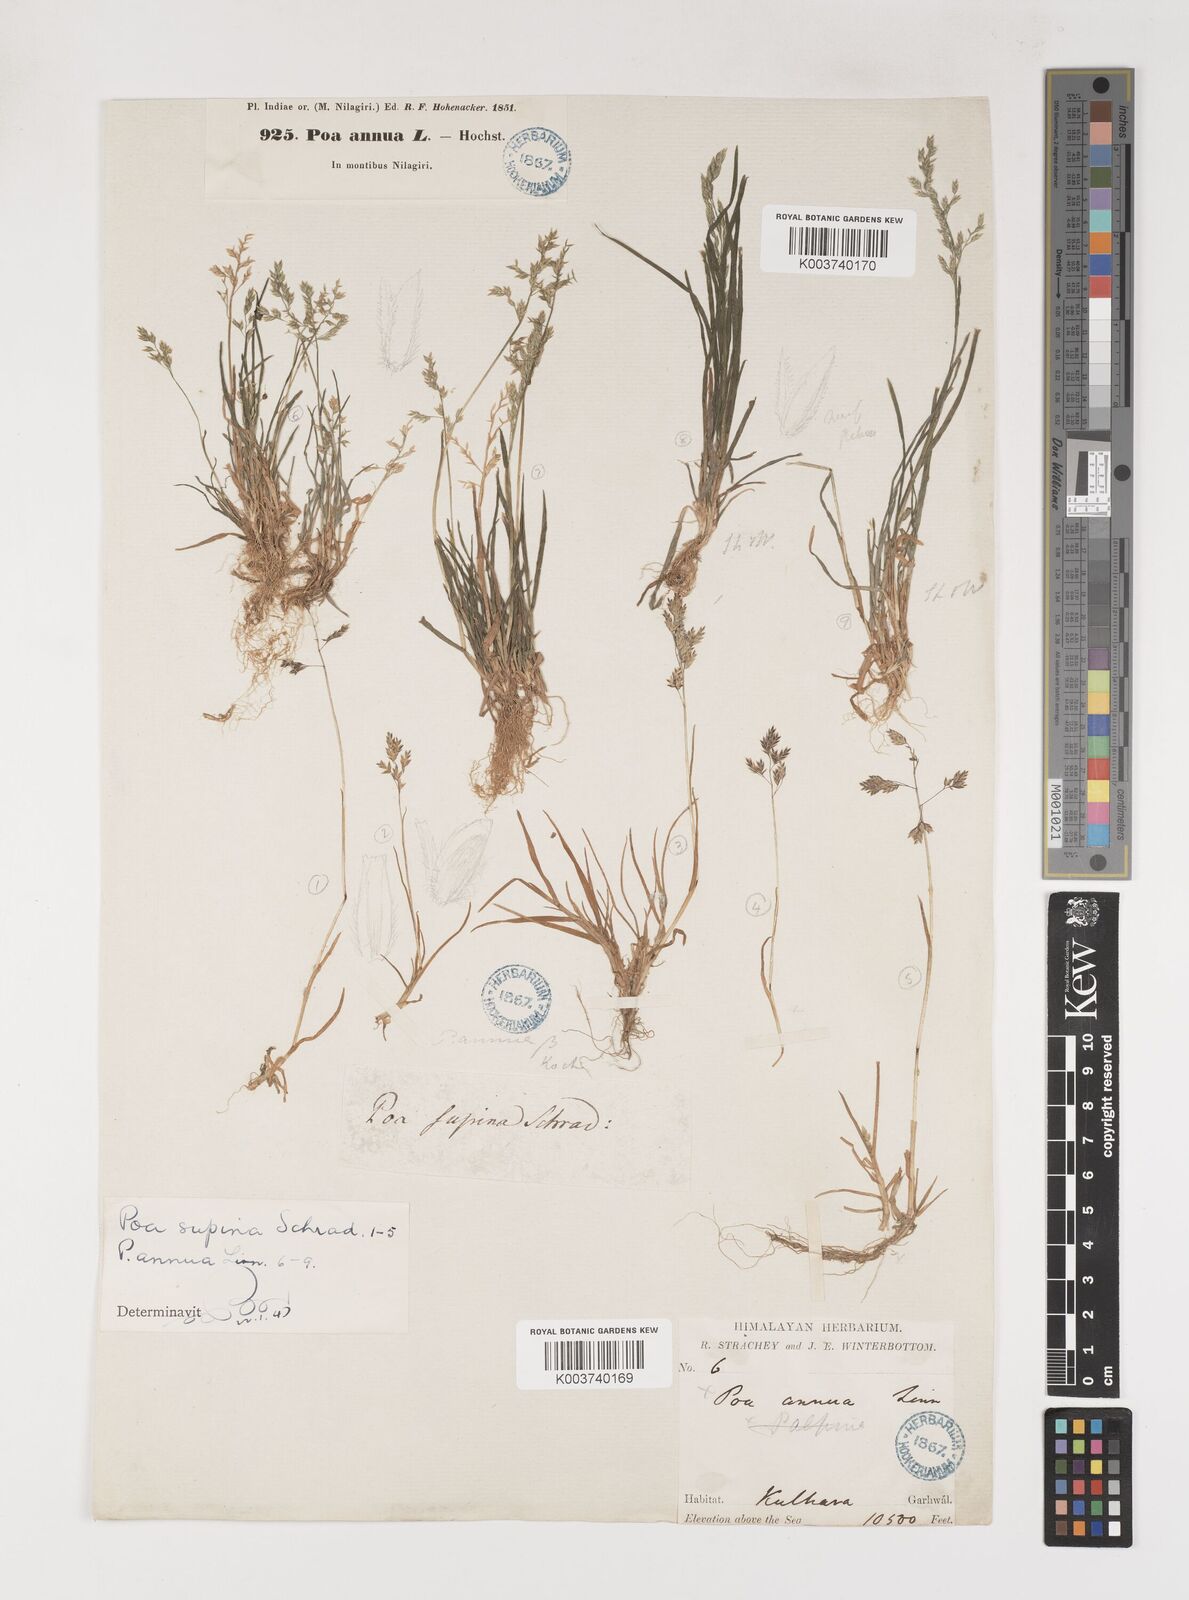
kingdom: Plantae
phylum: Tracheophyta
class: Liliopsida
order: Poales
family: Poaceae
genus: Poa
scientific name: Poa supina
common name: Supina bluegrass
